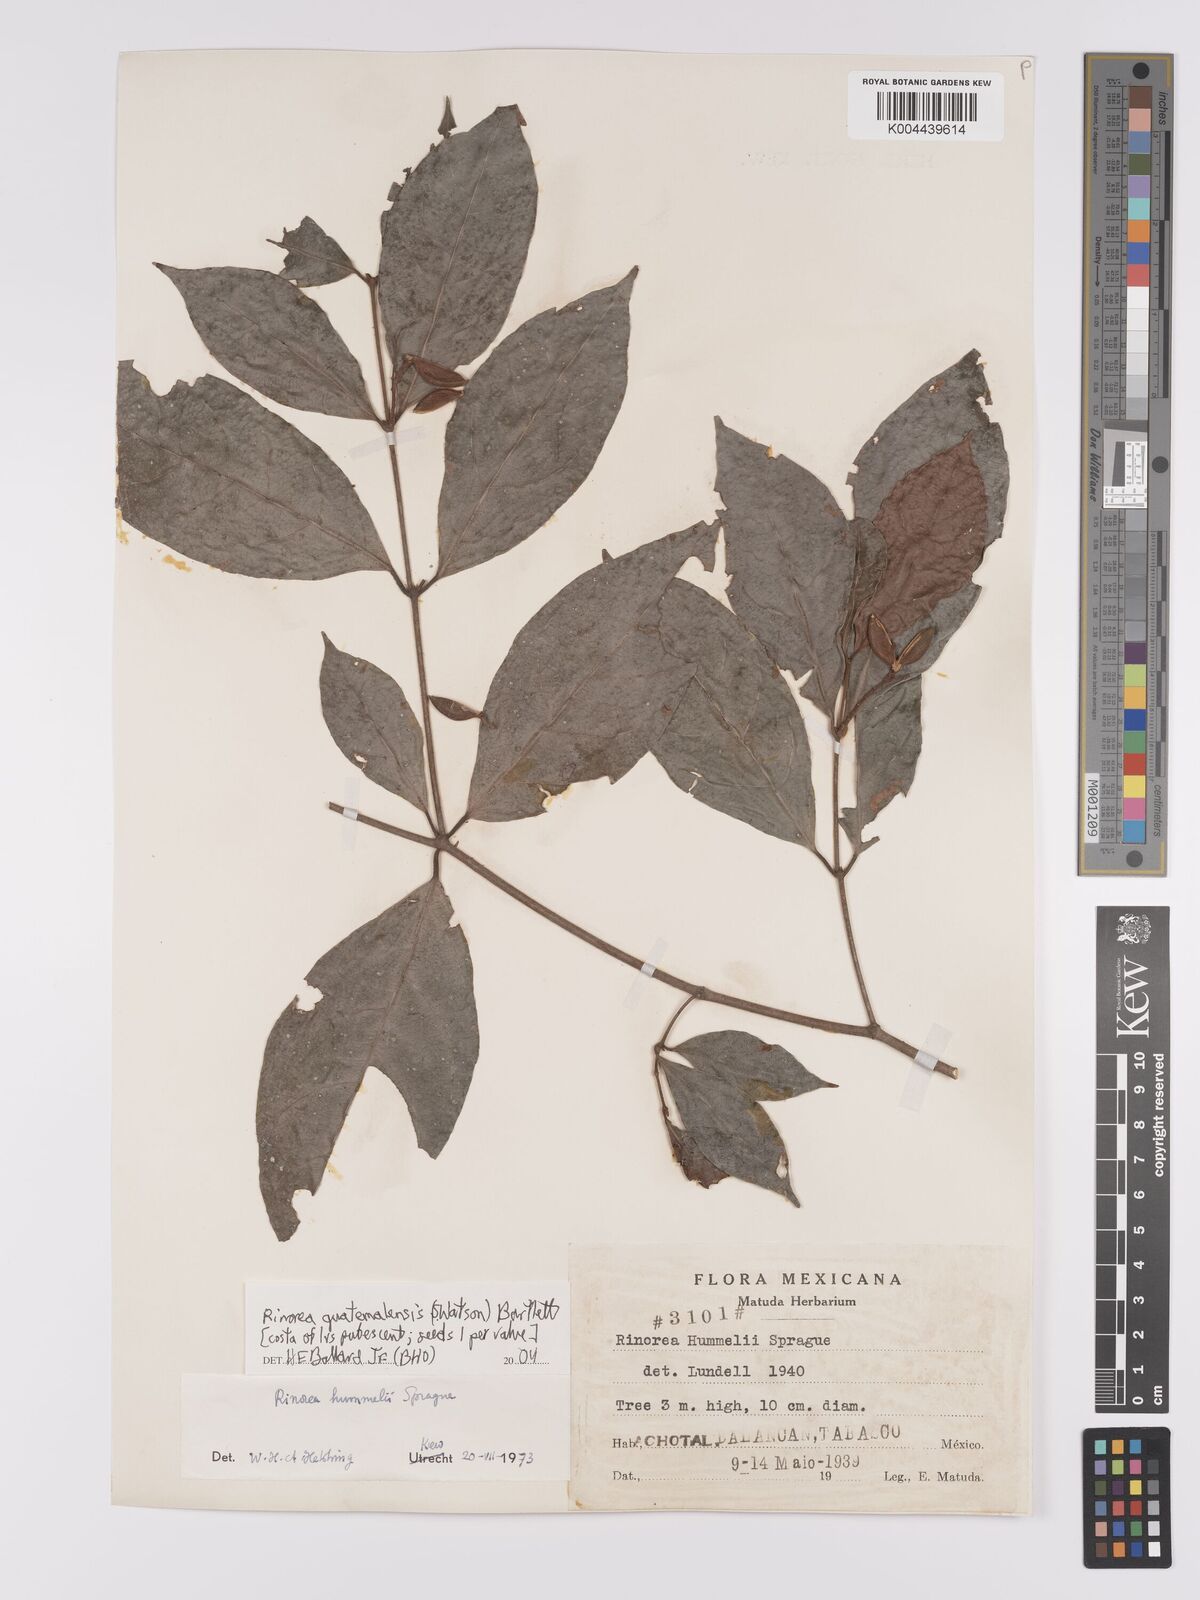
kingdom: Plantae
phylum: Tracheophyta
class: Magnoliopsida
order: Malpighiales
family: Violaceae
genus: Rinorea
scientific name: Rinorea guatemalensis
